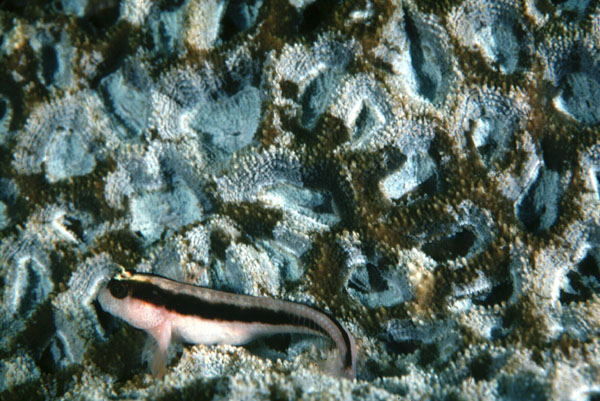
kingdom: Animalia
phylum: Chordata
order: Perciformes
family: Blenniidae
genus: Parablennius
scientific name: Parablennius serratolineatus
